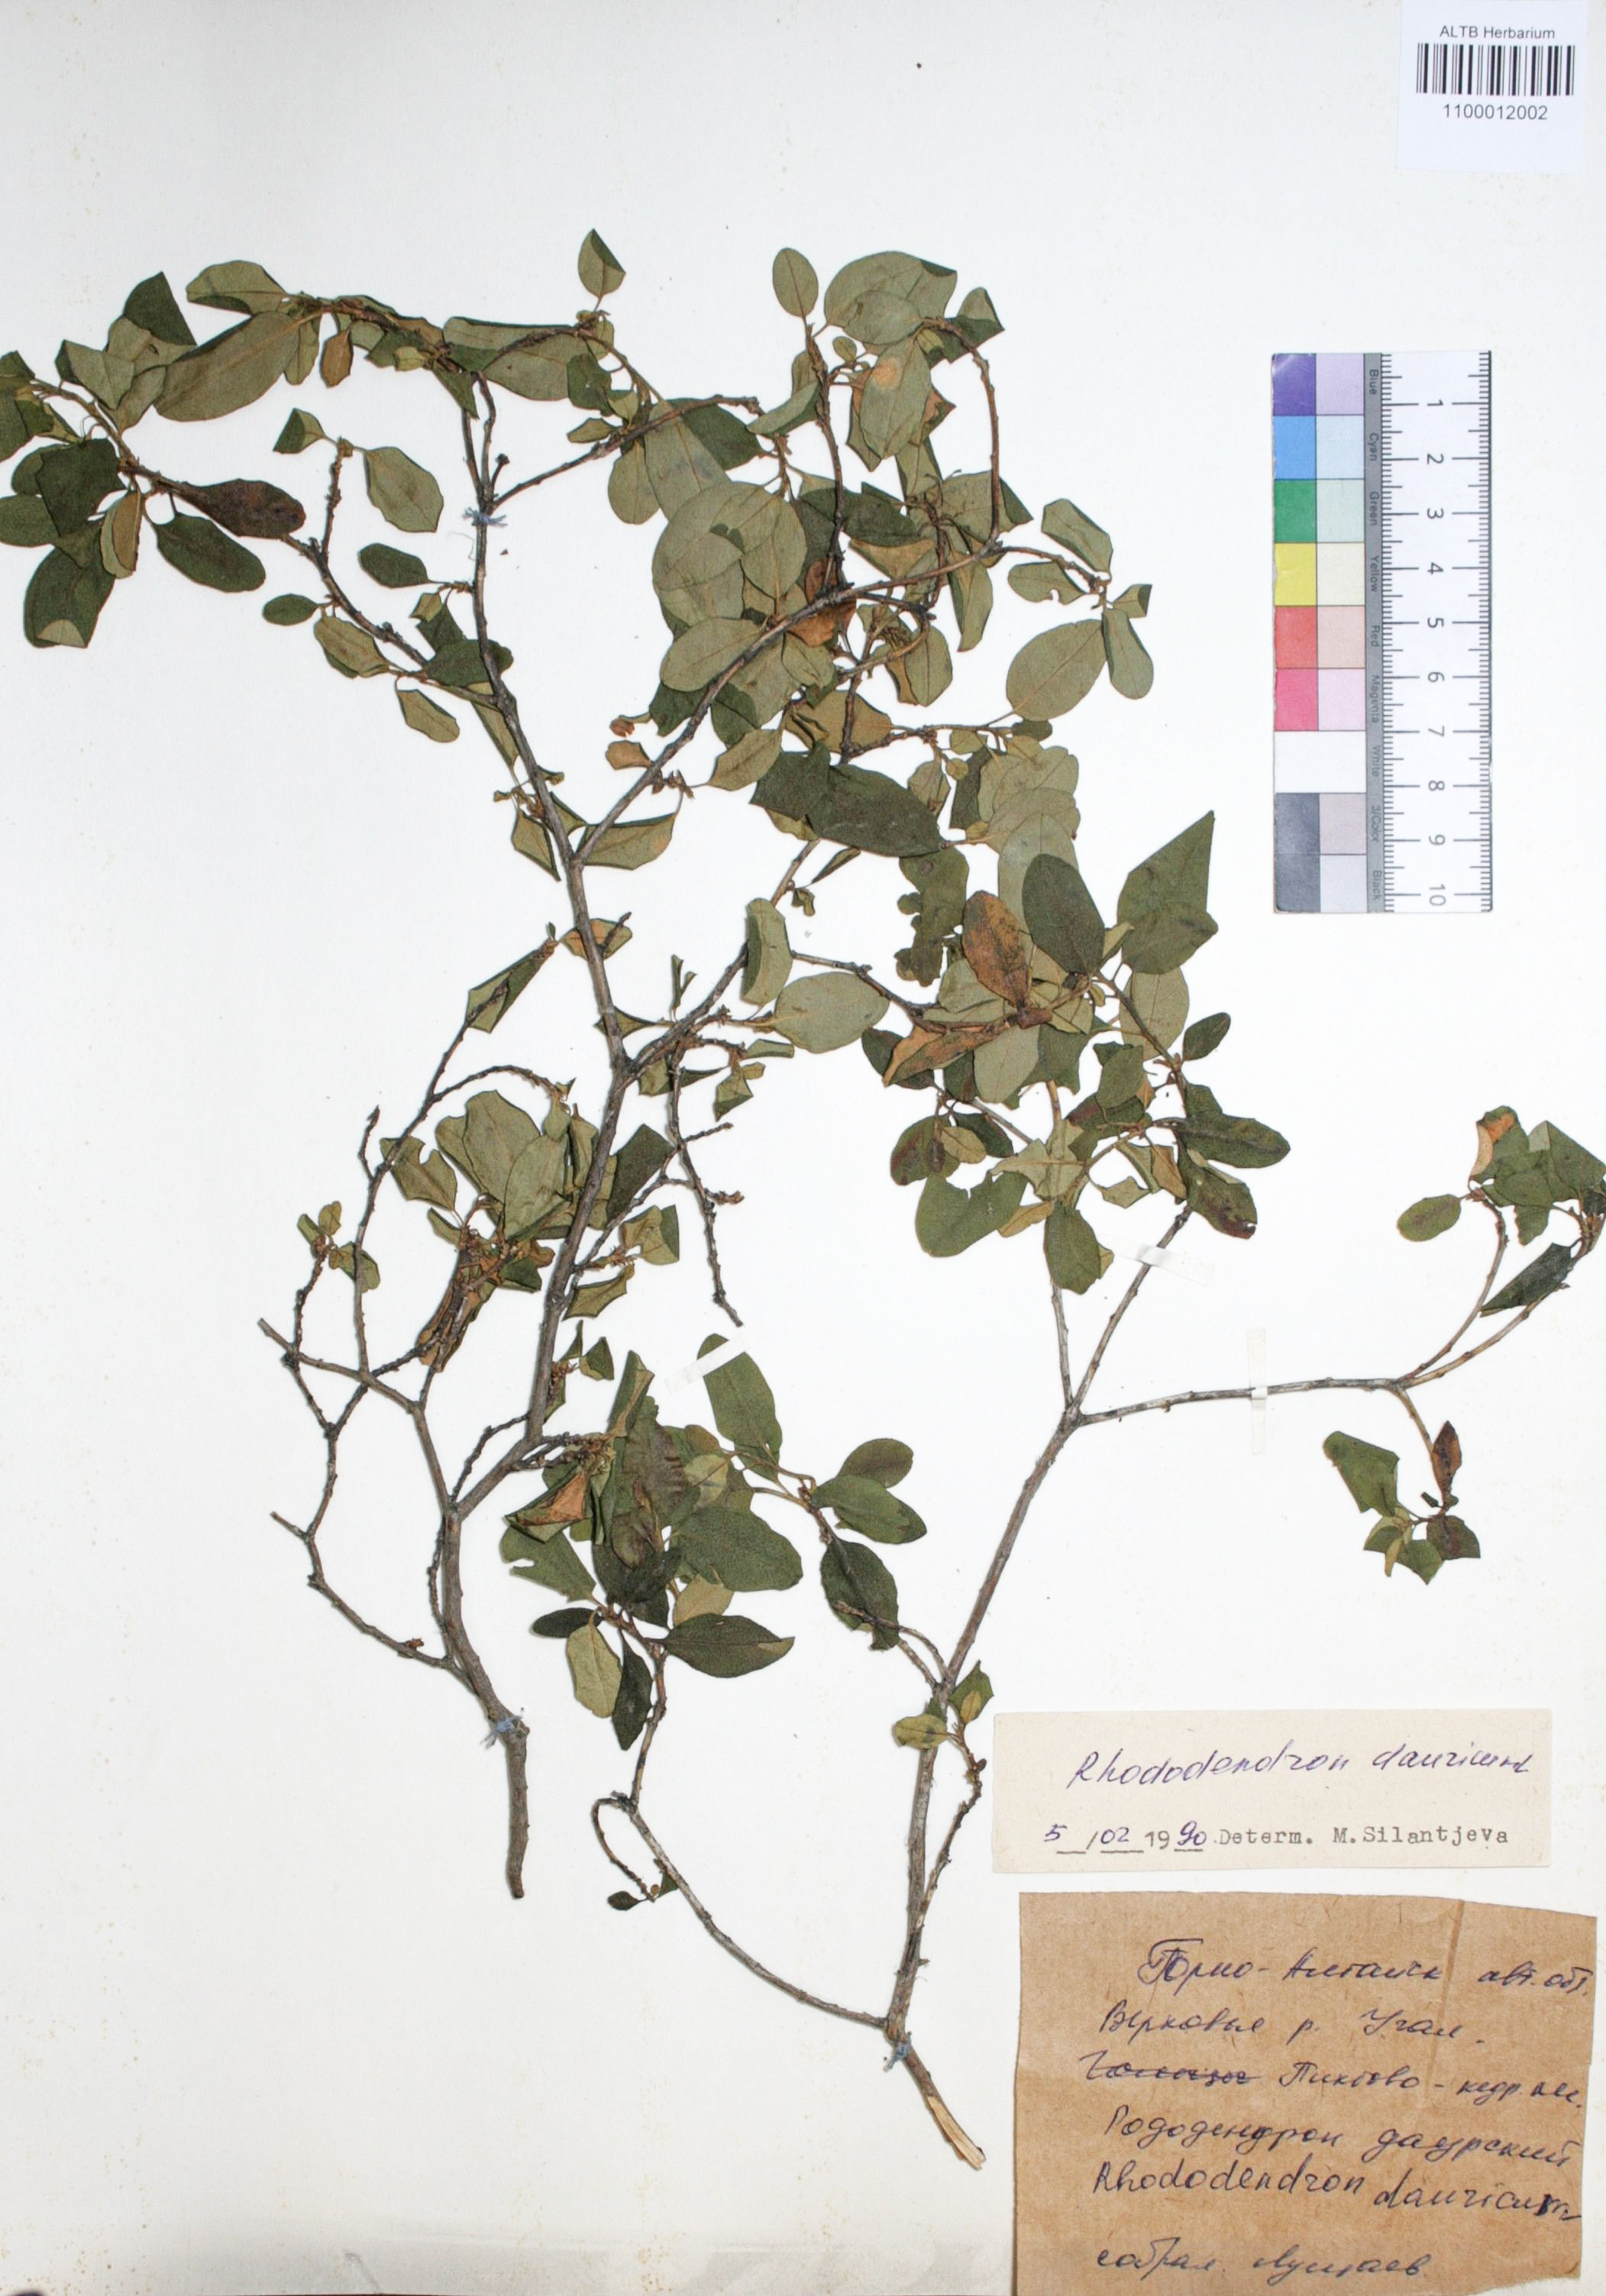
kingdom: Plantae
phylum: Tracheophyta
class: Magnoliopsida
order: Ericales
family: Ericaceae
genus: Rhododendron
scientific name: Rhododendron dahuricum
